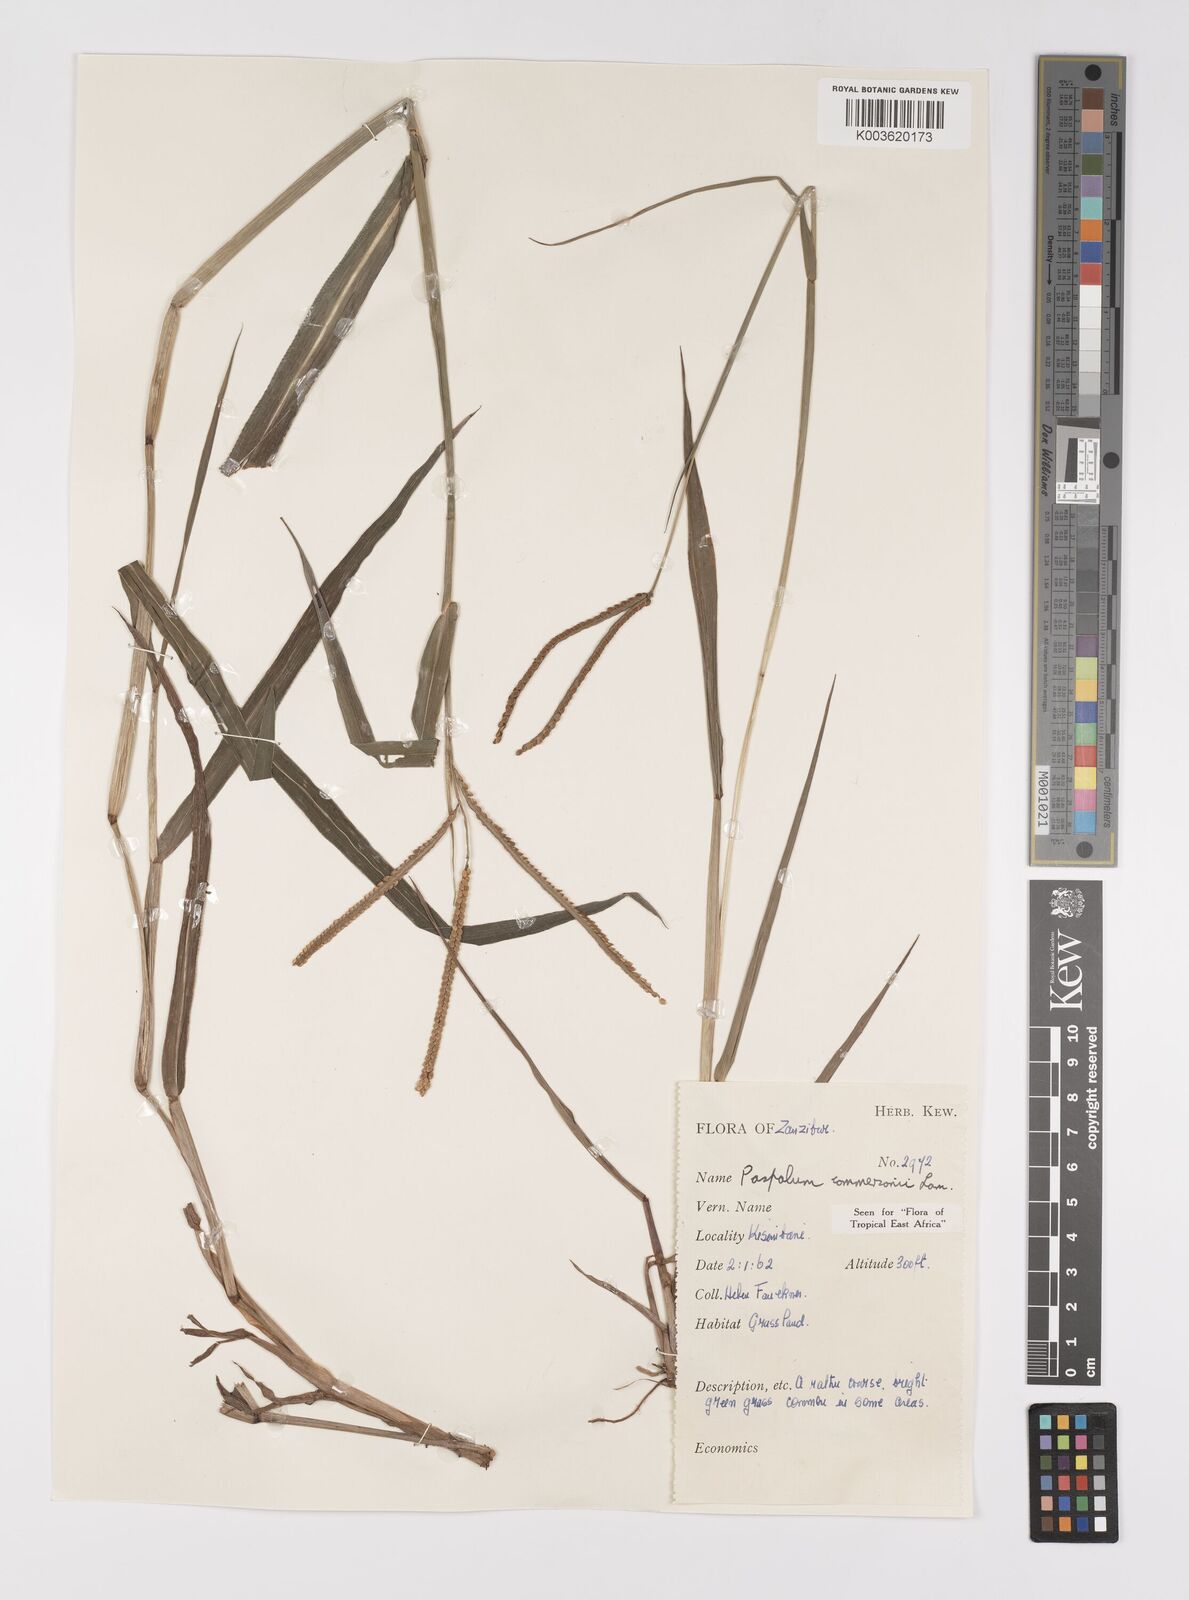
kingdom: Plantae
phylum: Tracheophyta
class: Liliopsida
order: Poales
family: Poaceae
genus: Paspalum
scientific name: Paspalum scrobiculatum
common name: Kodo millet
